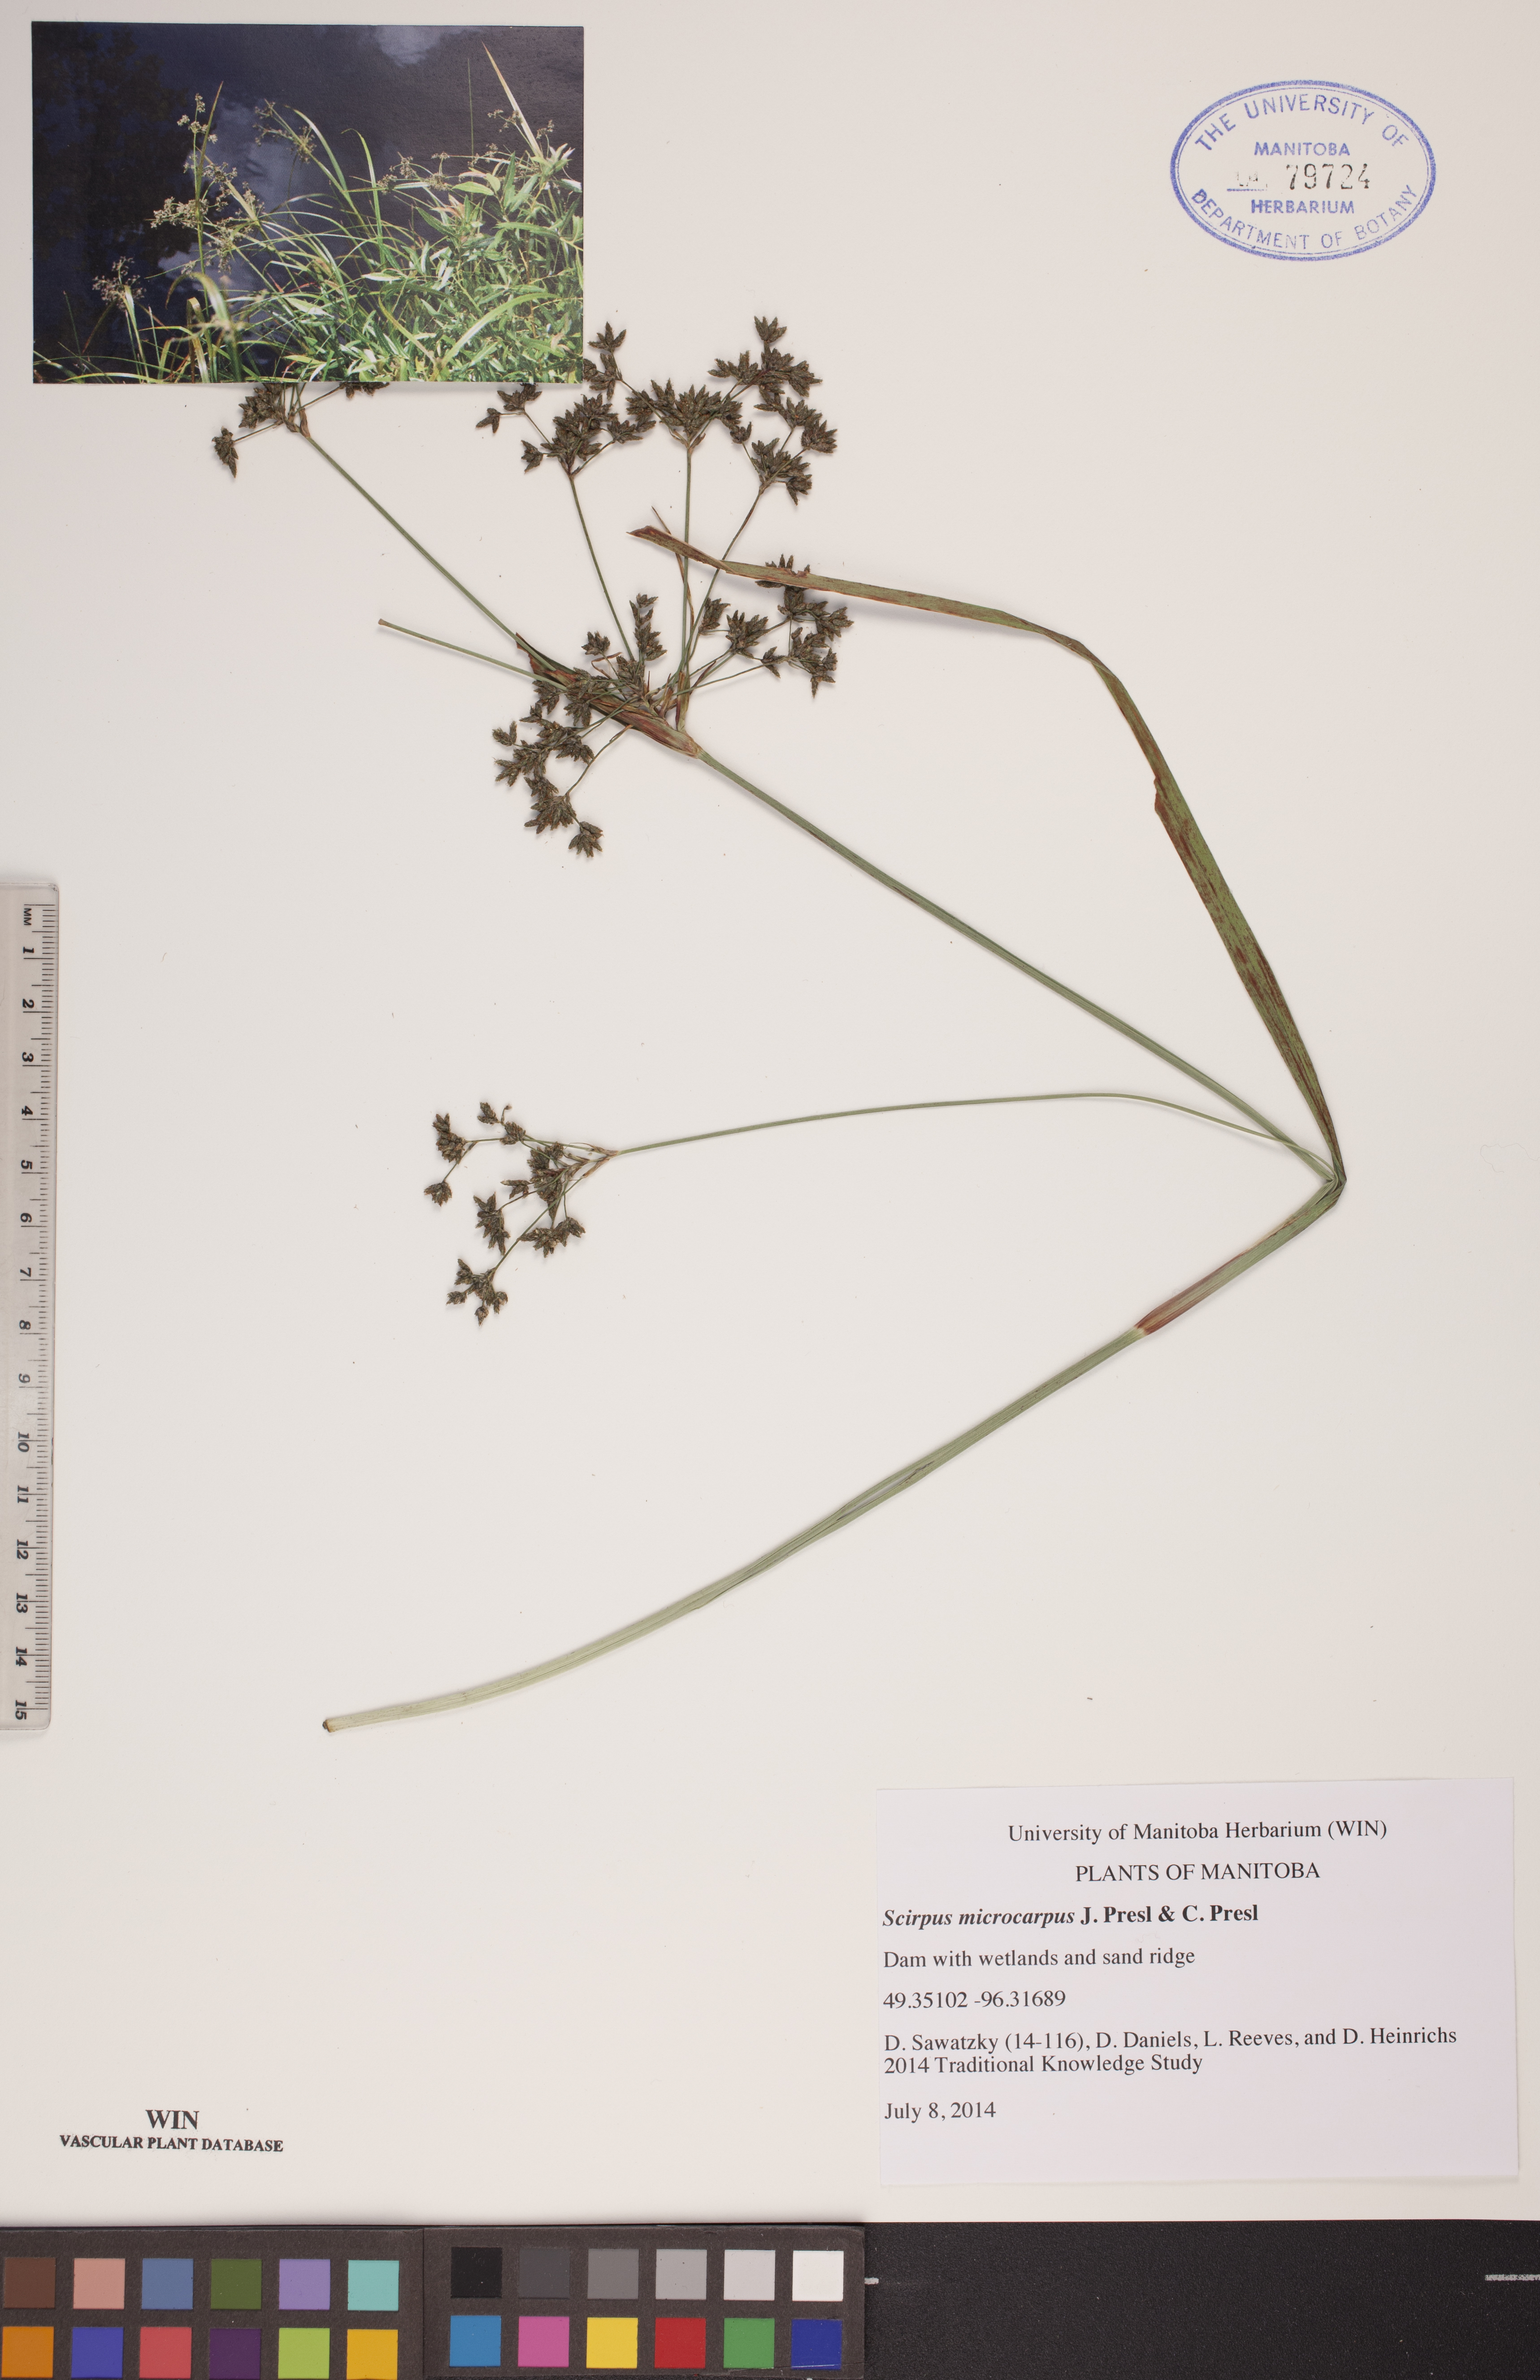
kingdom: Plantae
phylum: Tracheophyta
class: Liliopsida
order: Poales
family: Cyperaceae
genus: Scirpus
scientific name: Scirpus microcarpus
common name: Panicled bulrush
